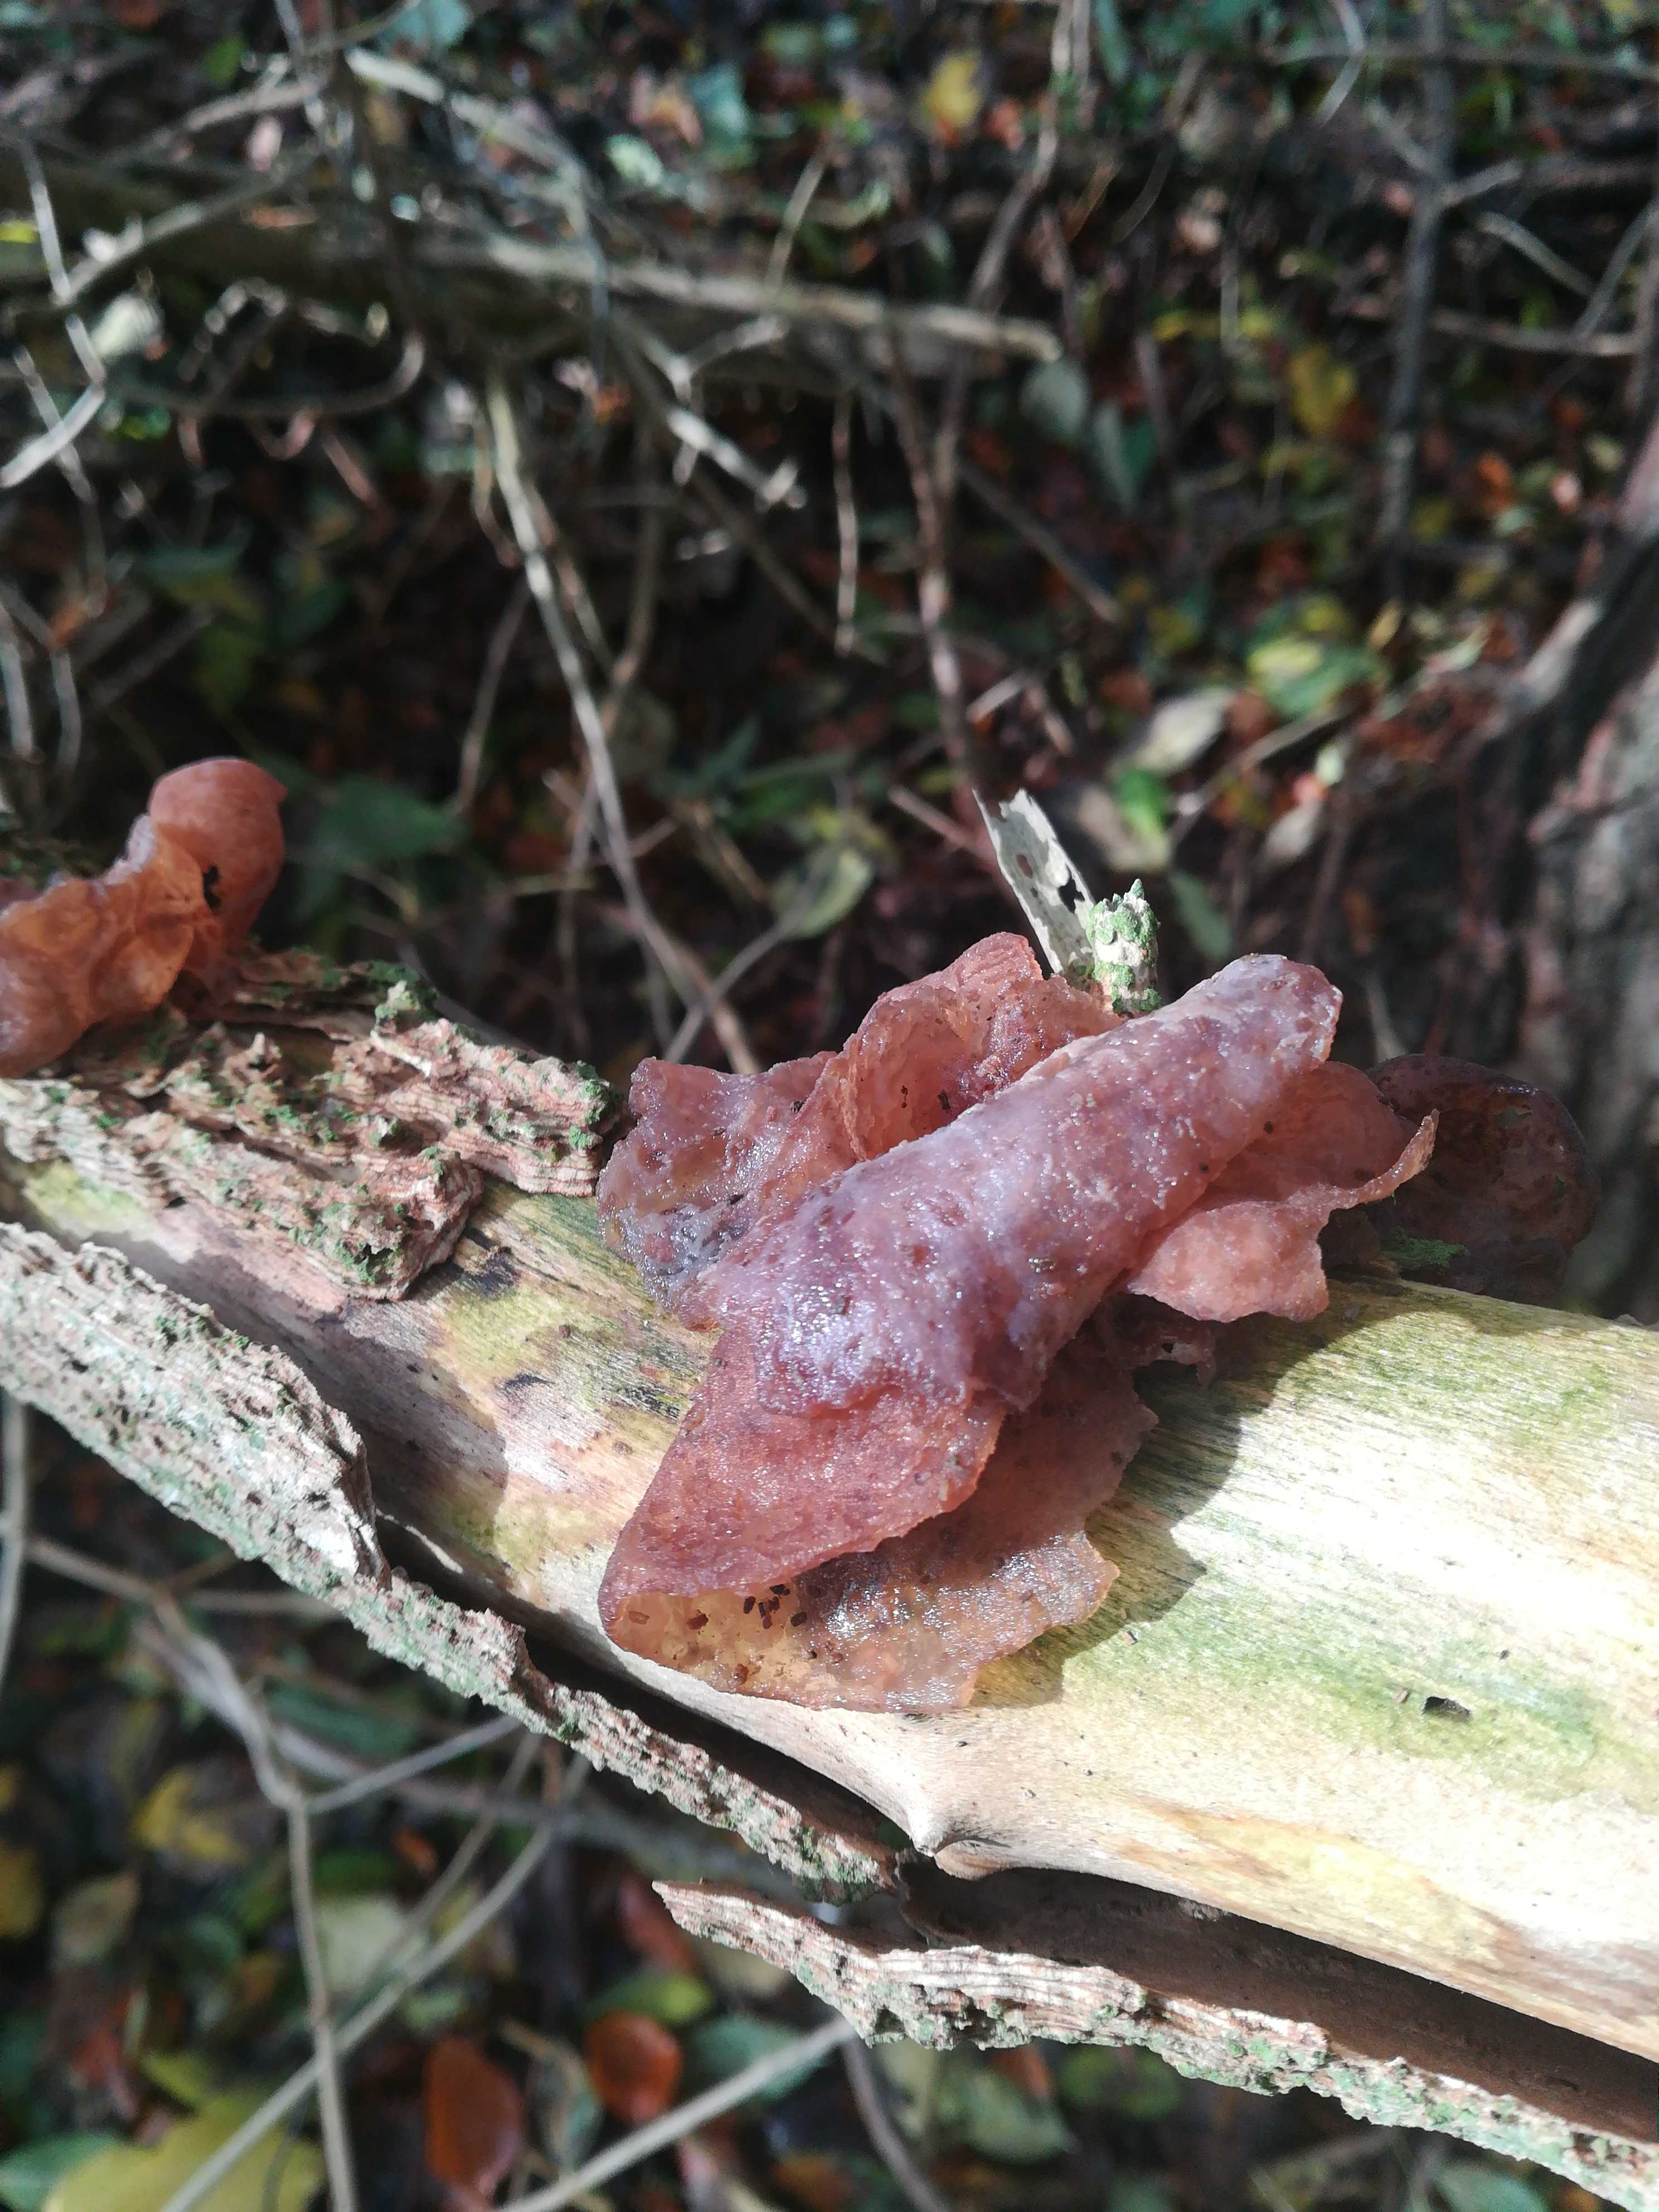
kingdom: Fungi
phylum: Basidiomycota
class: Agaricomycetes
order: Auriculariales
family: Auriculariaceae
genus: Auricularia
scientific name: Auricularia auricula-judae
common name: almindelig judasøre
